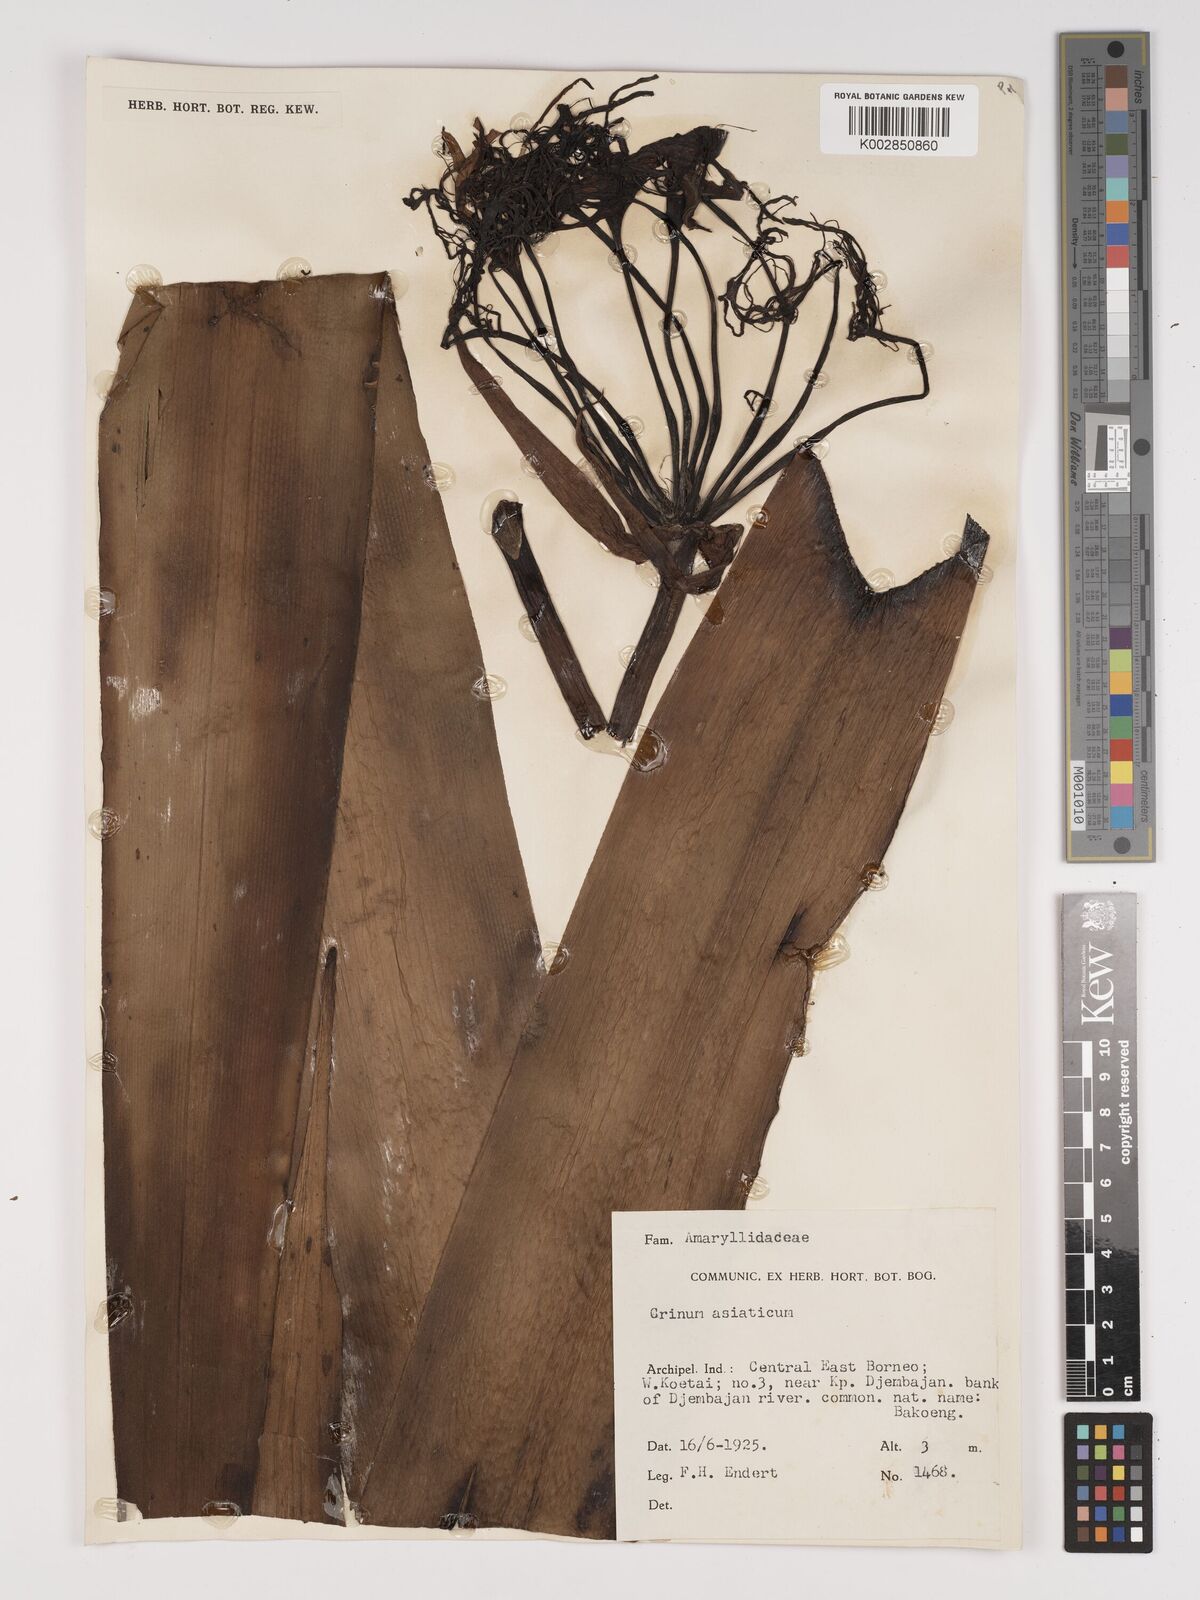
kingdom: Plantae
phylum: Tracheophyta
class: Liliopsida
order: Asparagales
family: Amaryllidaceae
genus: Crinum
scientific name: Crinum asiaticum
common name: Poisonbulb
